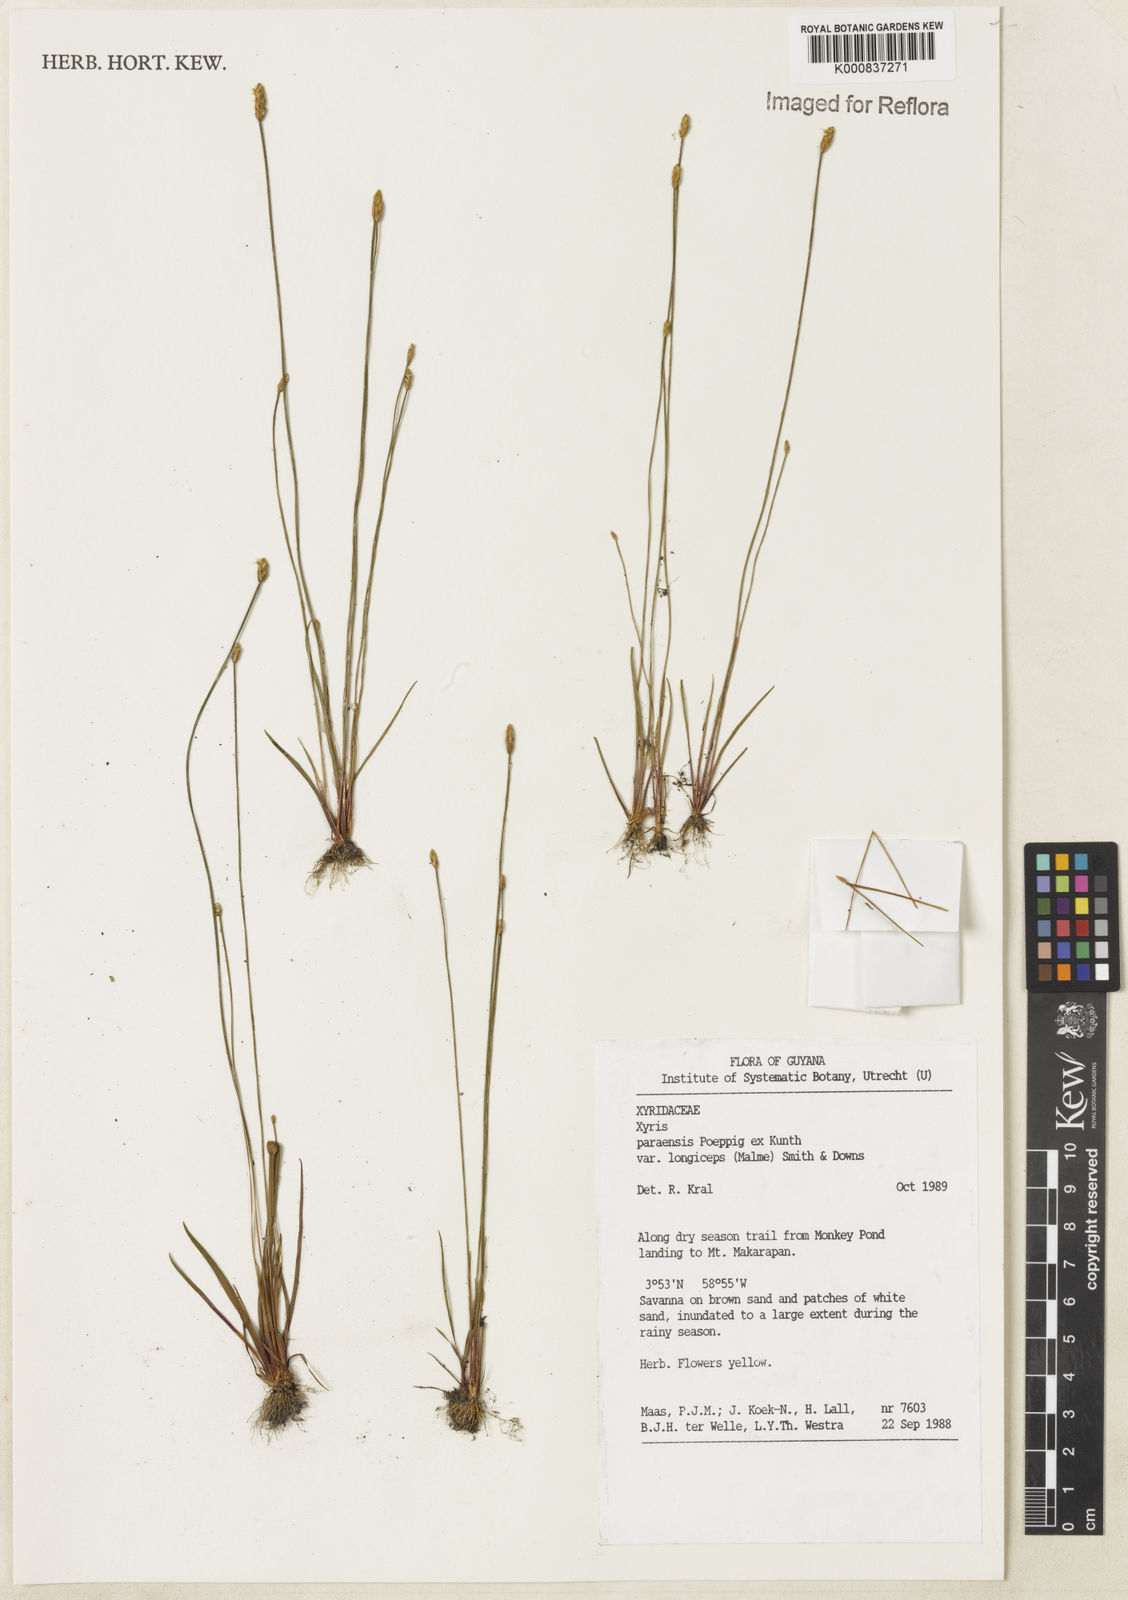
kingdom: Plantae
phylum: Tracheophyta
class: Liliopsida
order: Poales
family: Xyridaceae
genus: Xyris
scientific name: Xyris paraensis
